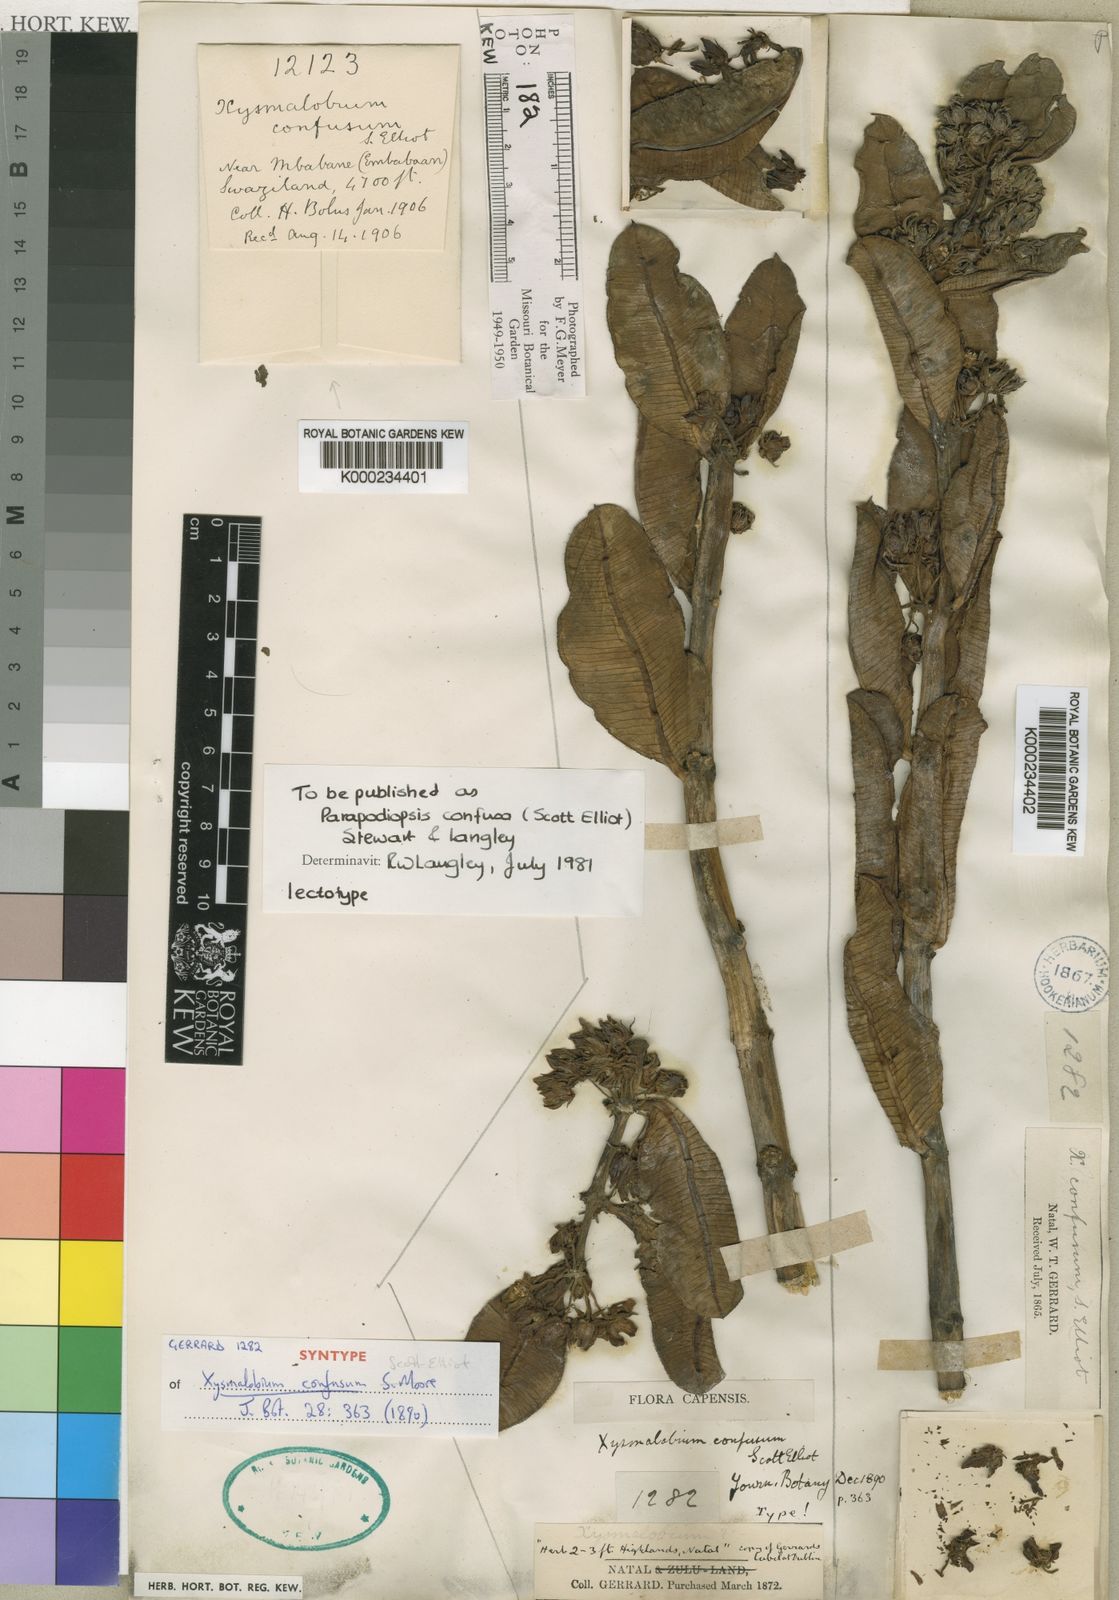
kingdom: Plantae
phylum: Tracheophyta
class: Magnoliopsida
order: Gentianales
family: Asclepiadaceae
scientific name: Asclepiadaceae
